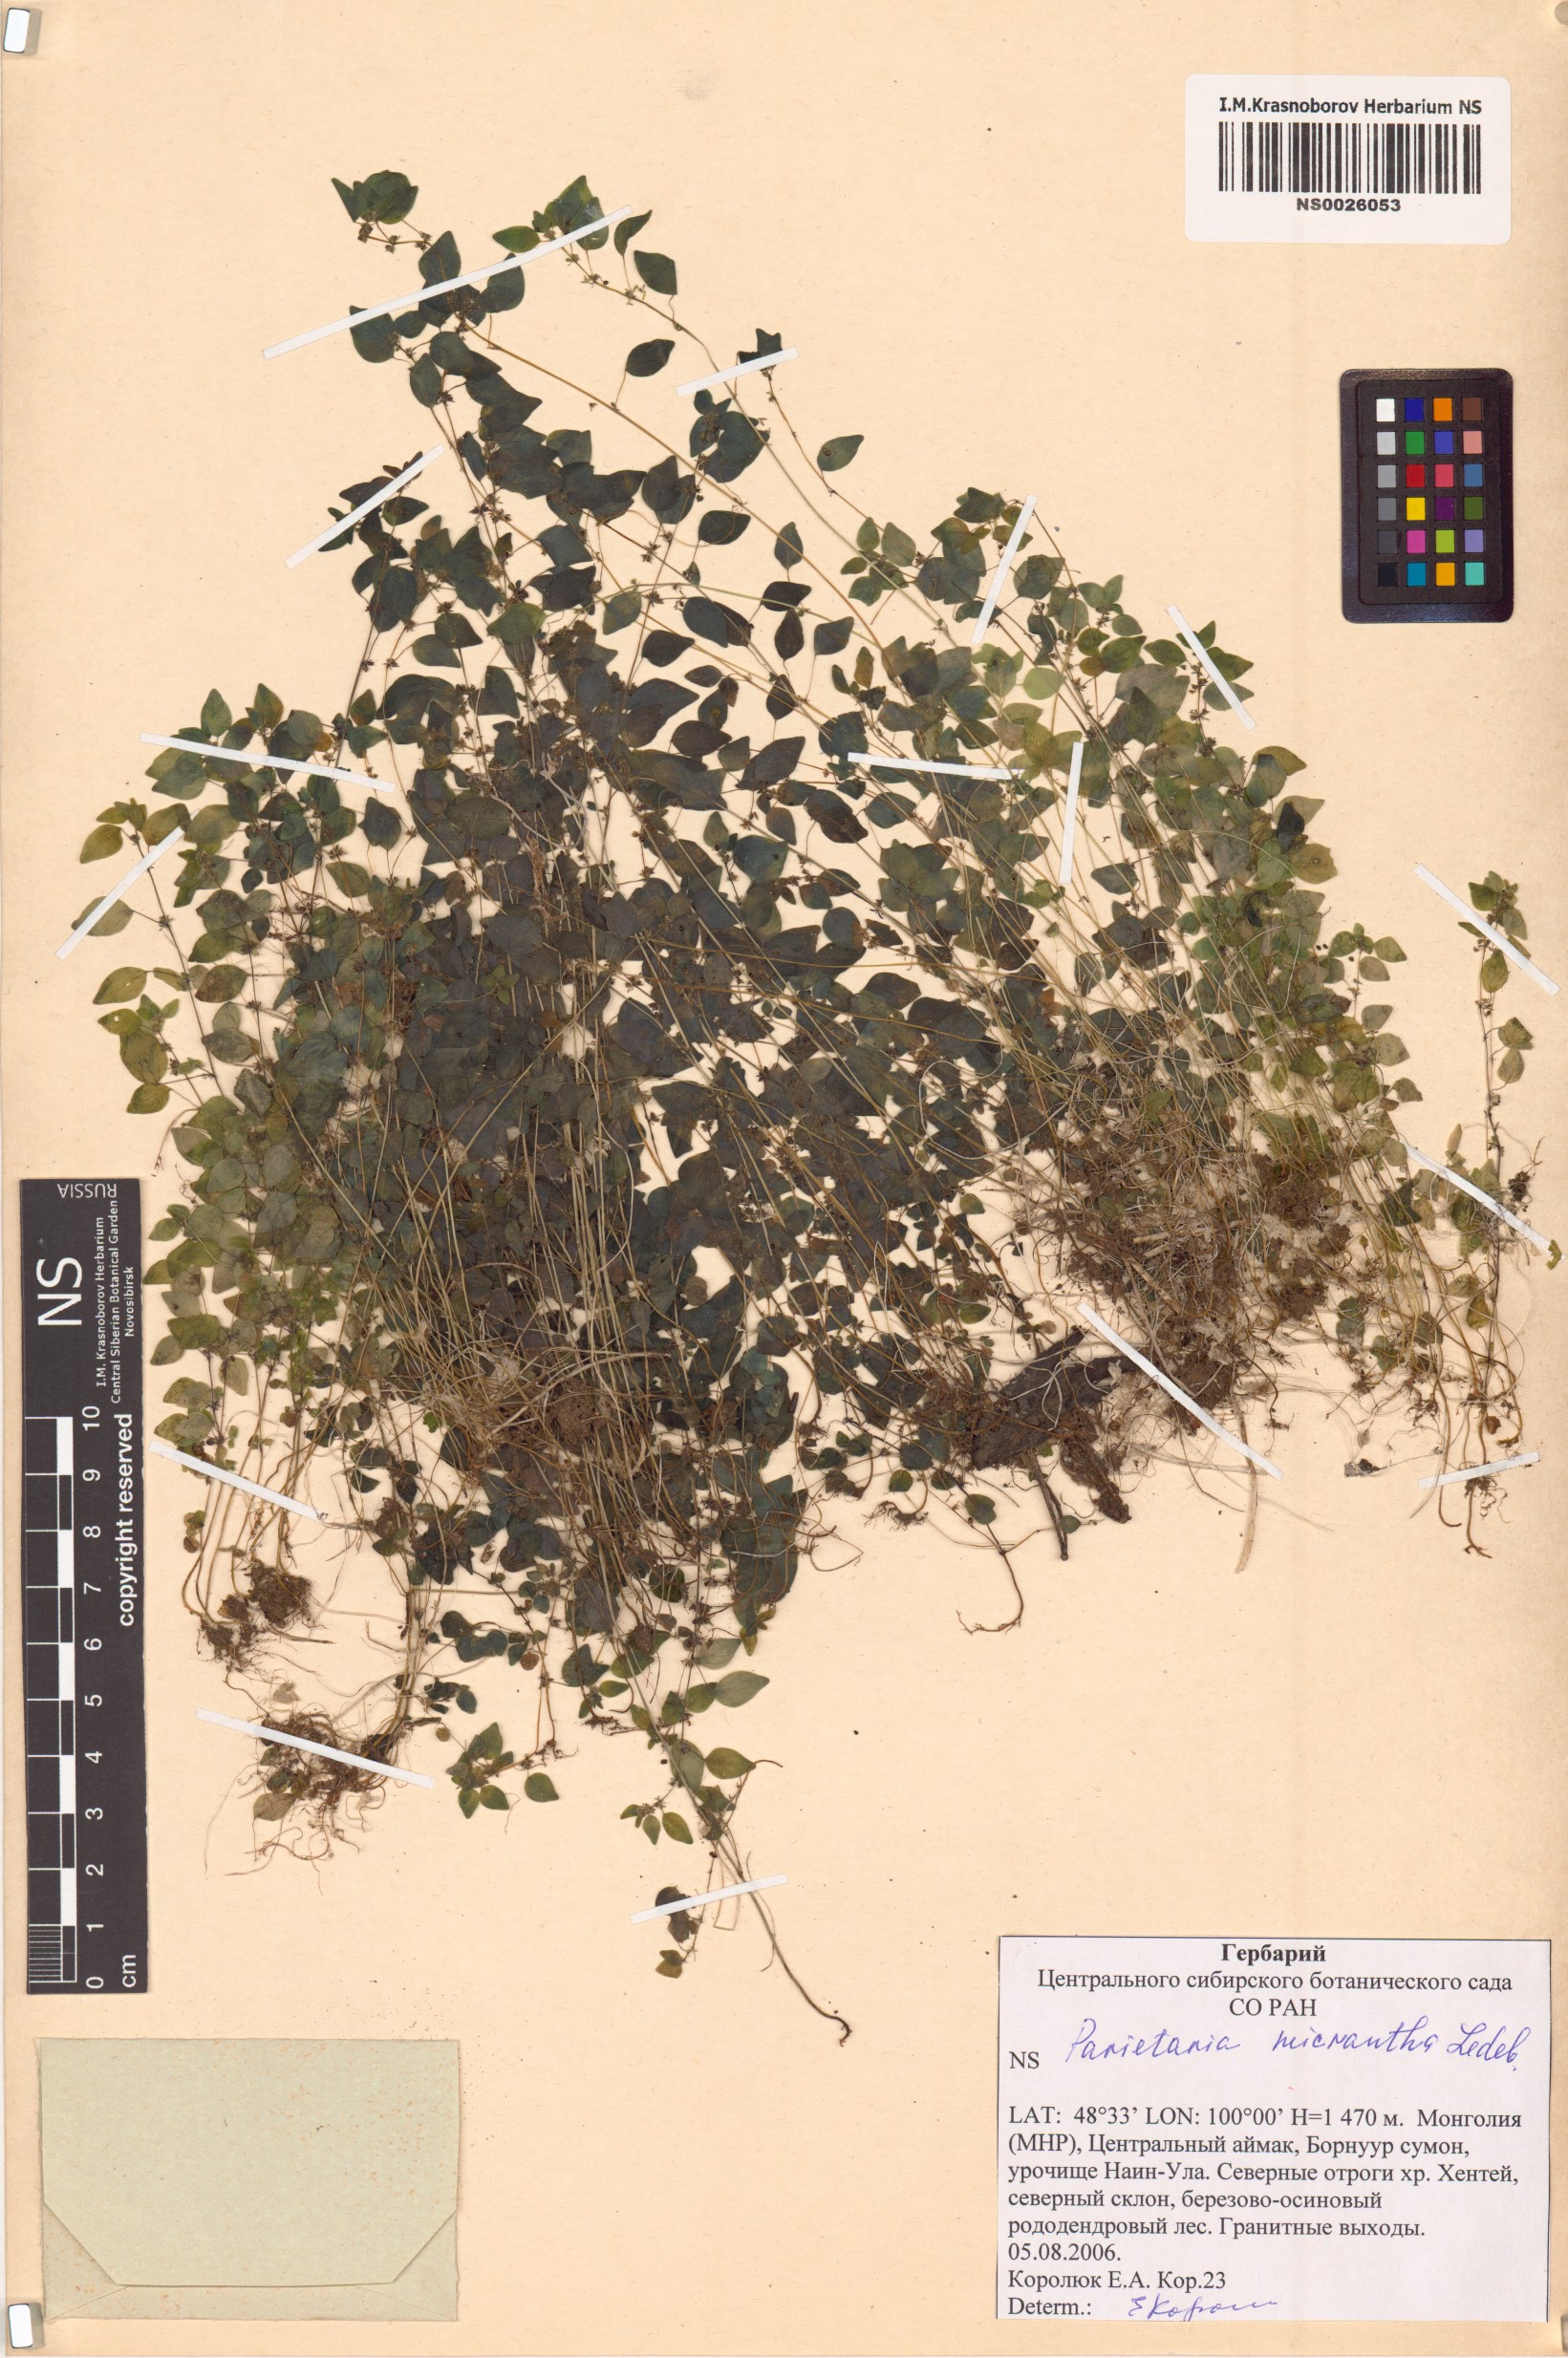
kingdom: Plantae
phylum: Tracheophyta
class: Magnoliopsida
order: Rosales
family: Urticaceae
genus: Parietaria
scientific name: Parietaria micrantha
